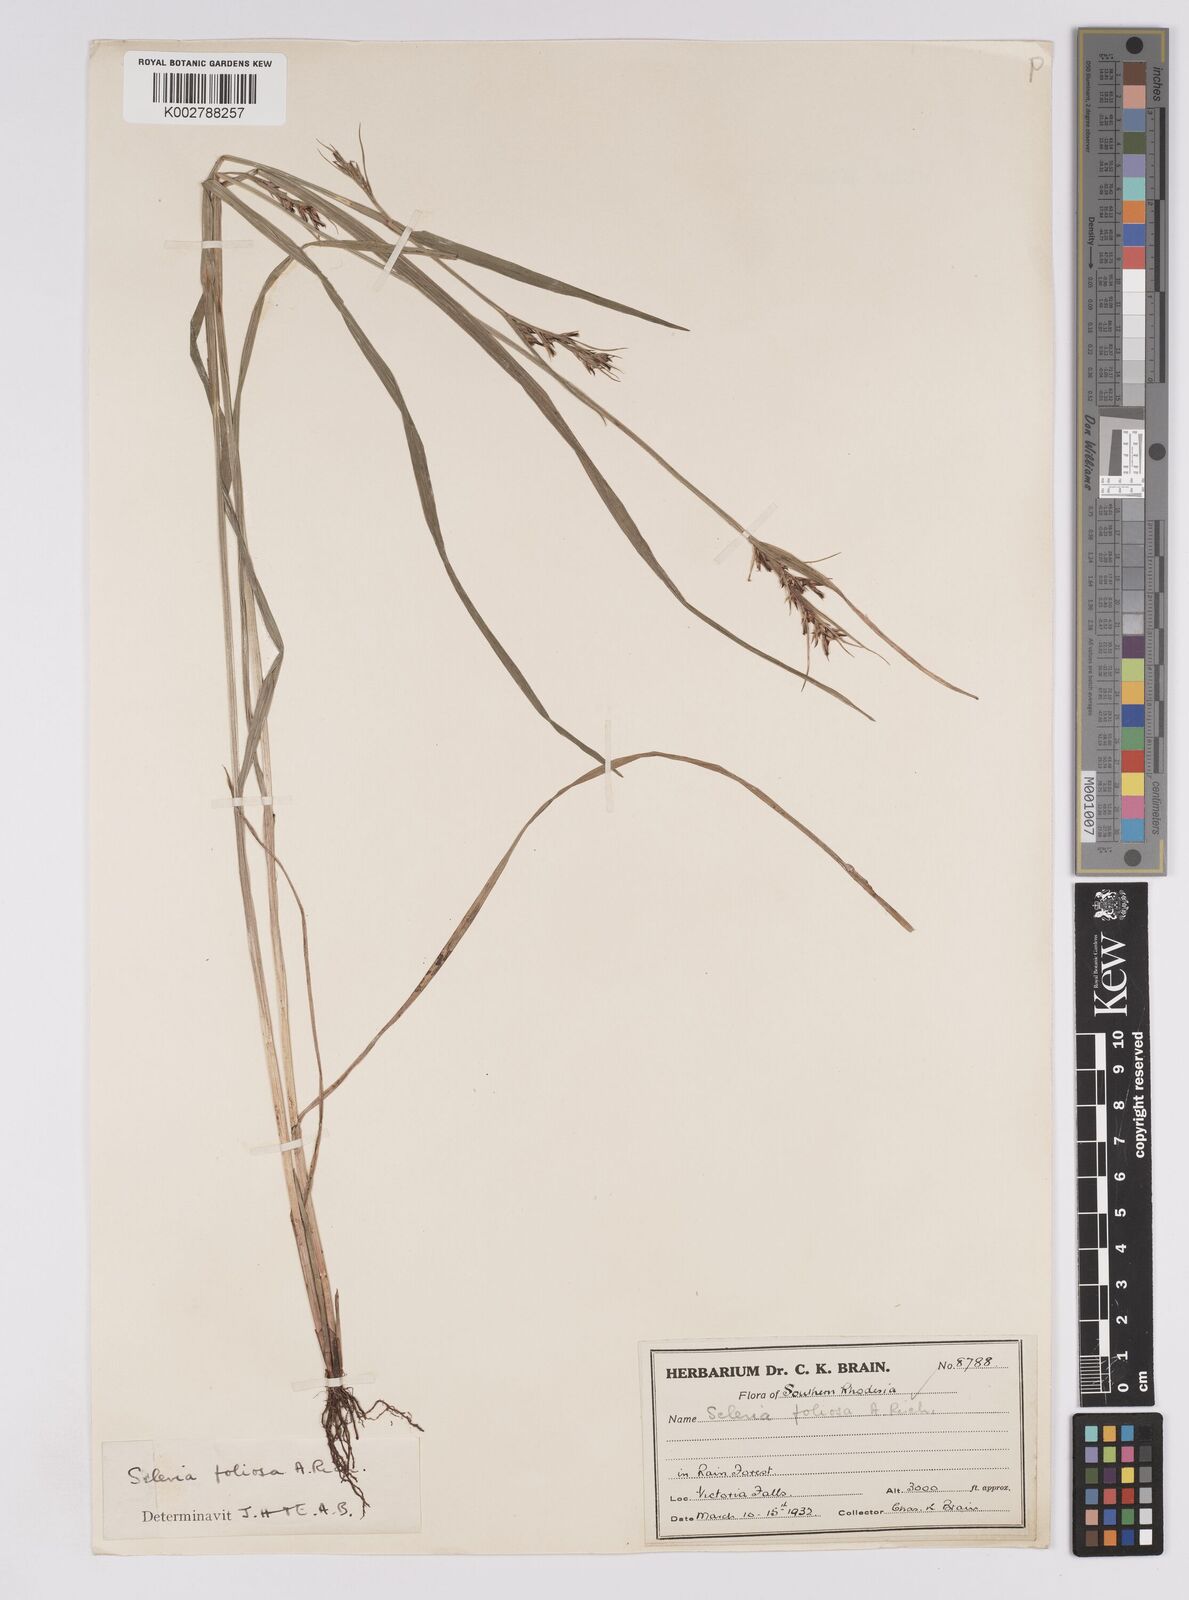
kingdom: Plantae
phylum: Tracheophyta
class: Liliopsida
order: Poales
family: Cyperaceae
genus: Scleria
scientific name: Scleria foliosa
